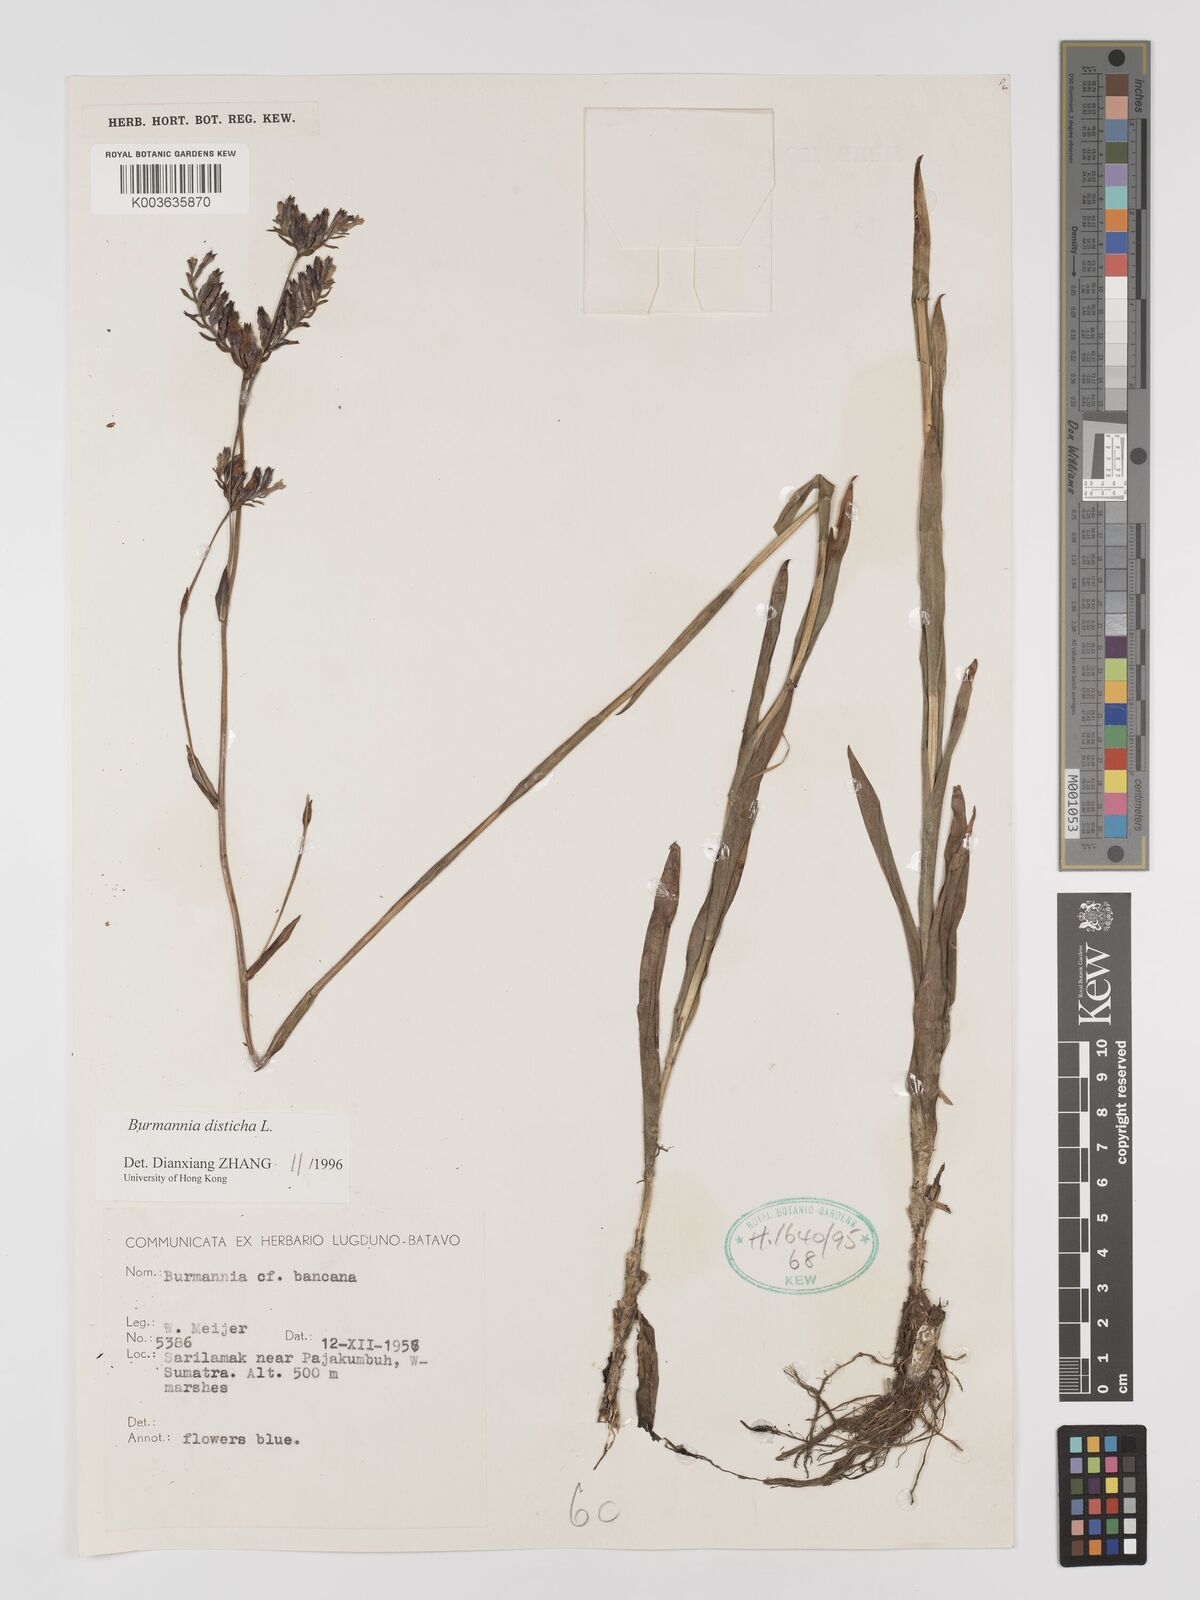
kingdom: Plantae
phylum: Tracheophyta
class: Liliopsida
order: Dioscoreales
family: Burmanniaceae
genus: Burmannia
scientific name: Burmannia disticha
